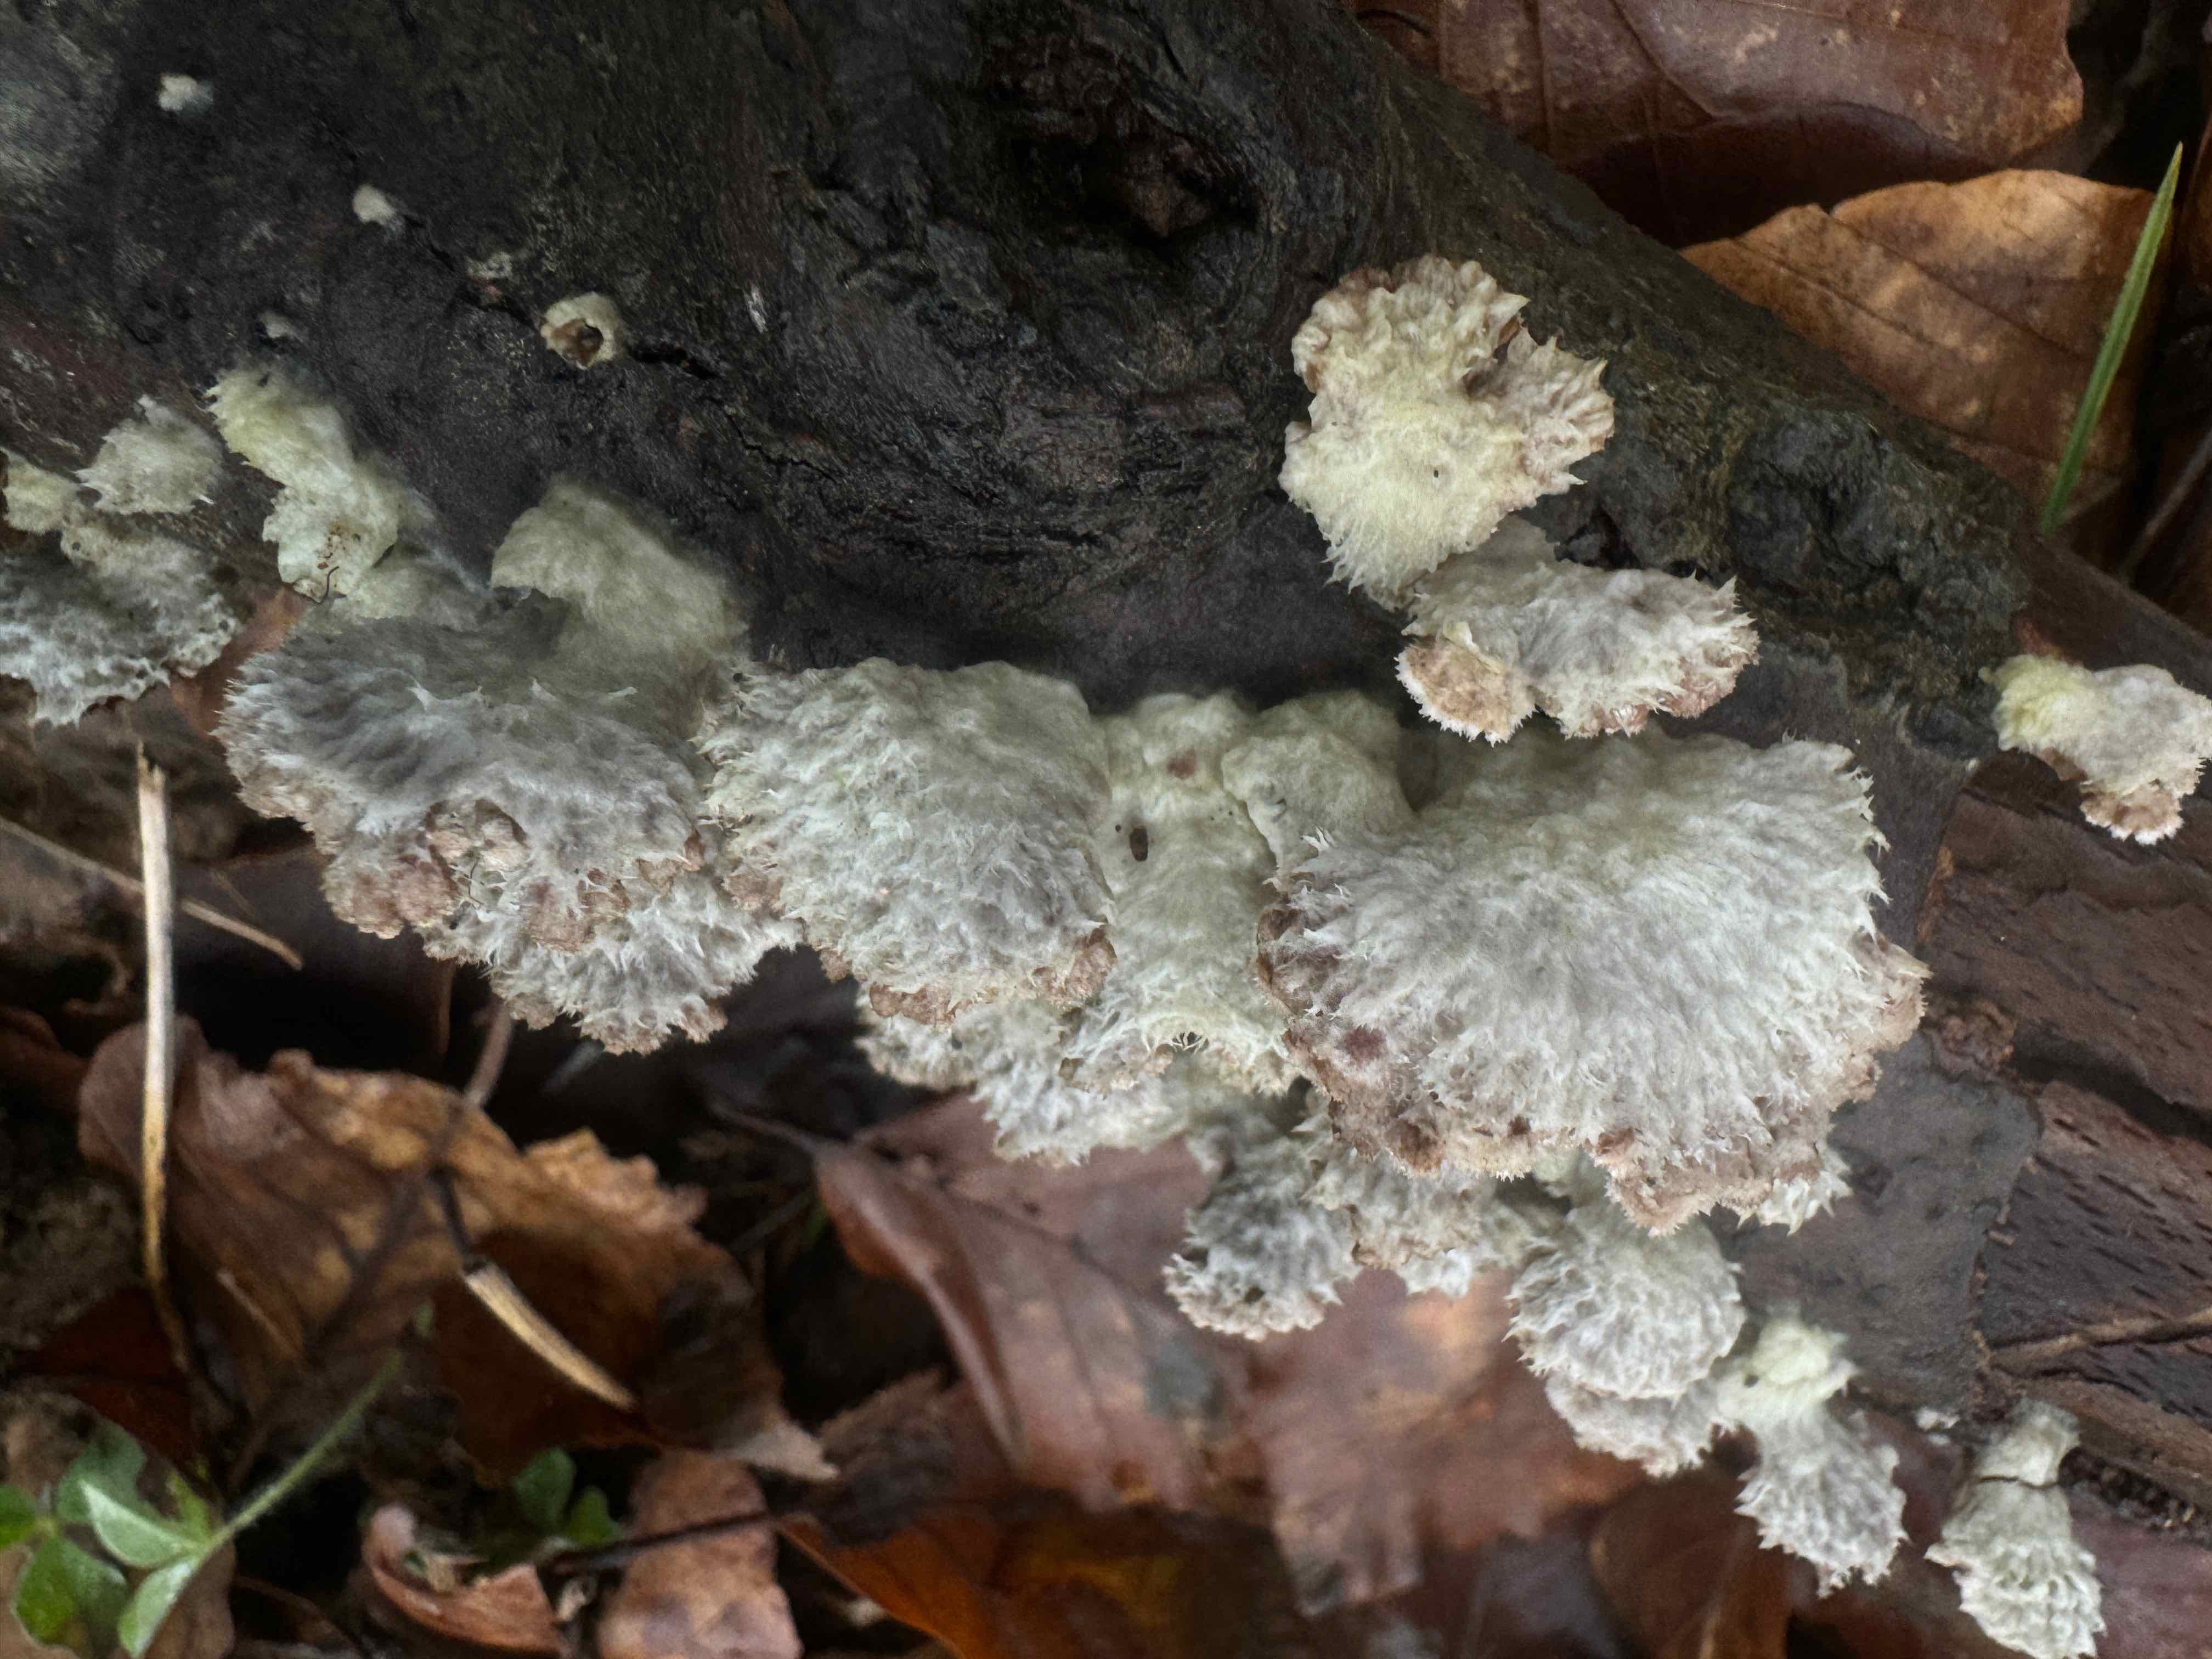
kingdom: Fungi
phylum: Basidiomycota
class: Agaricomycetes
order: Agaricales
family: Schizophyllaceae
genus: Schizophyllum
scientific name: Schizophyllum commune
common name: kløvblad
